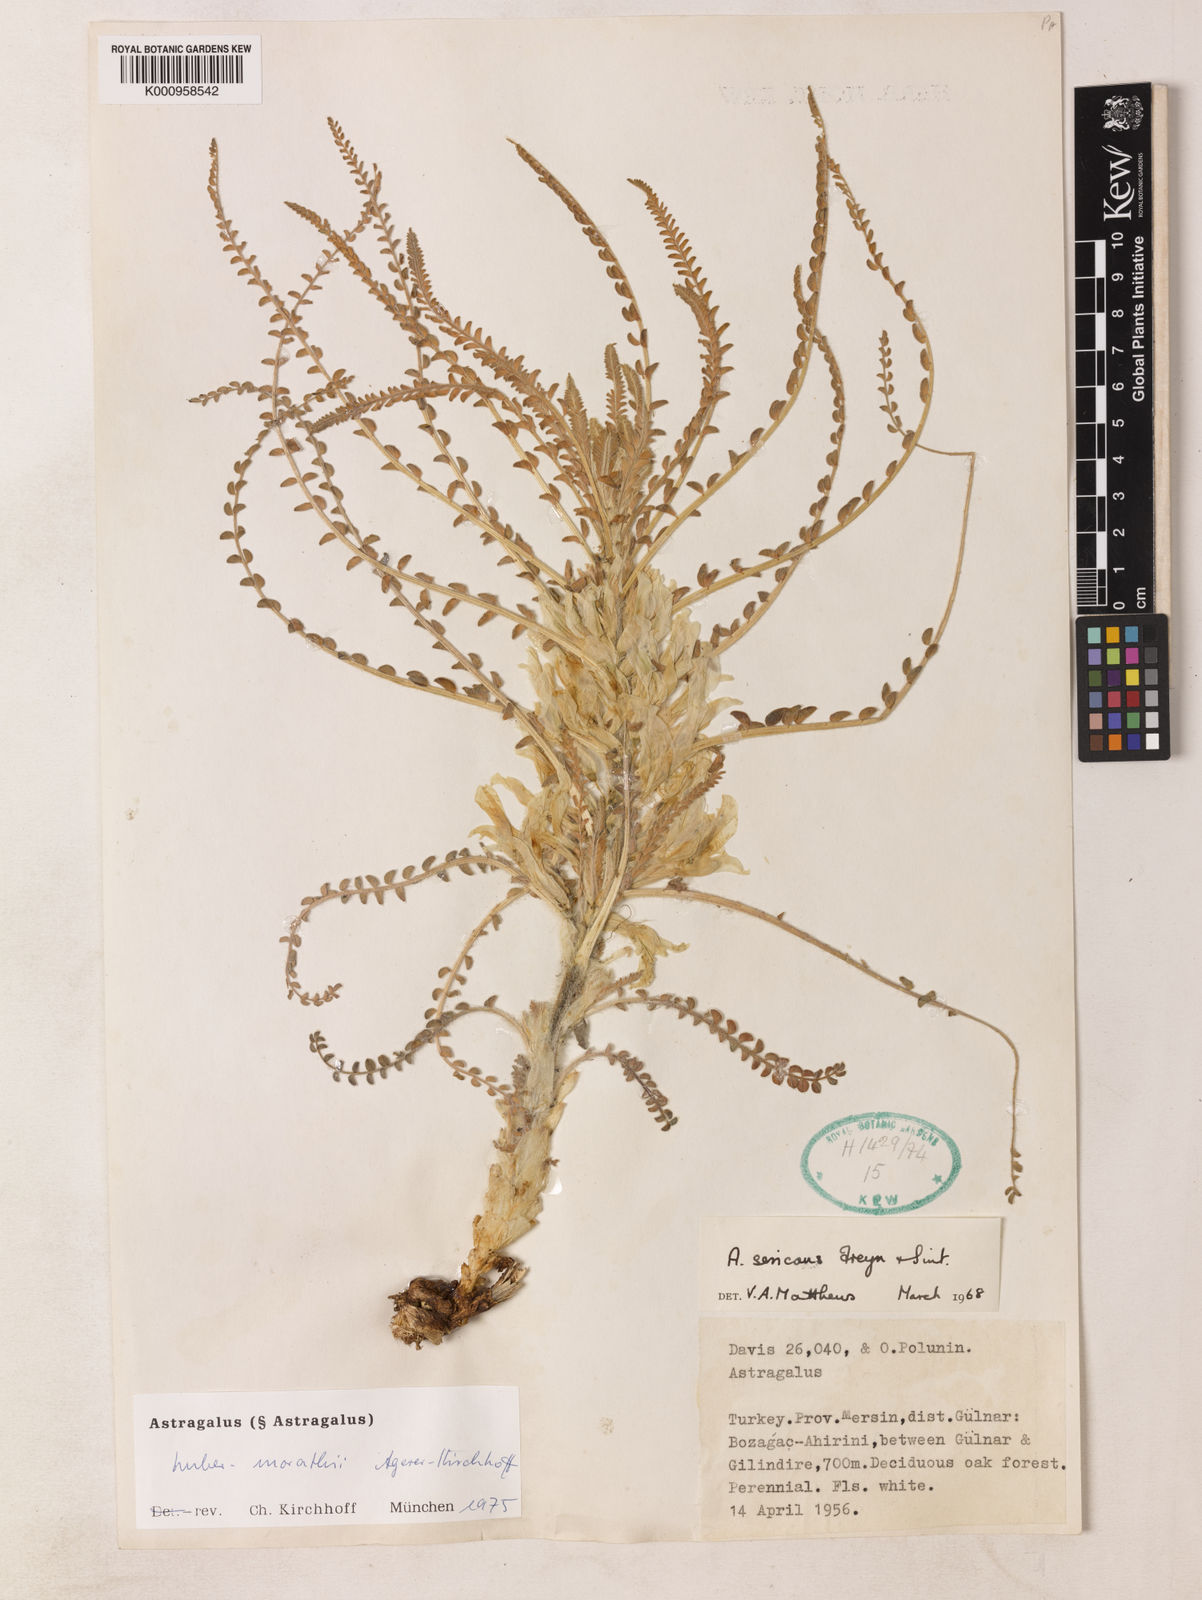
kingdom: Plantae
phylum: Tracheophyta
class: Magnoliopsida
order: Fabales
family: Fabaceae
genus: Astragalus
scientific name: Astragalus huber-morathii
